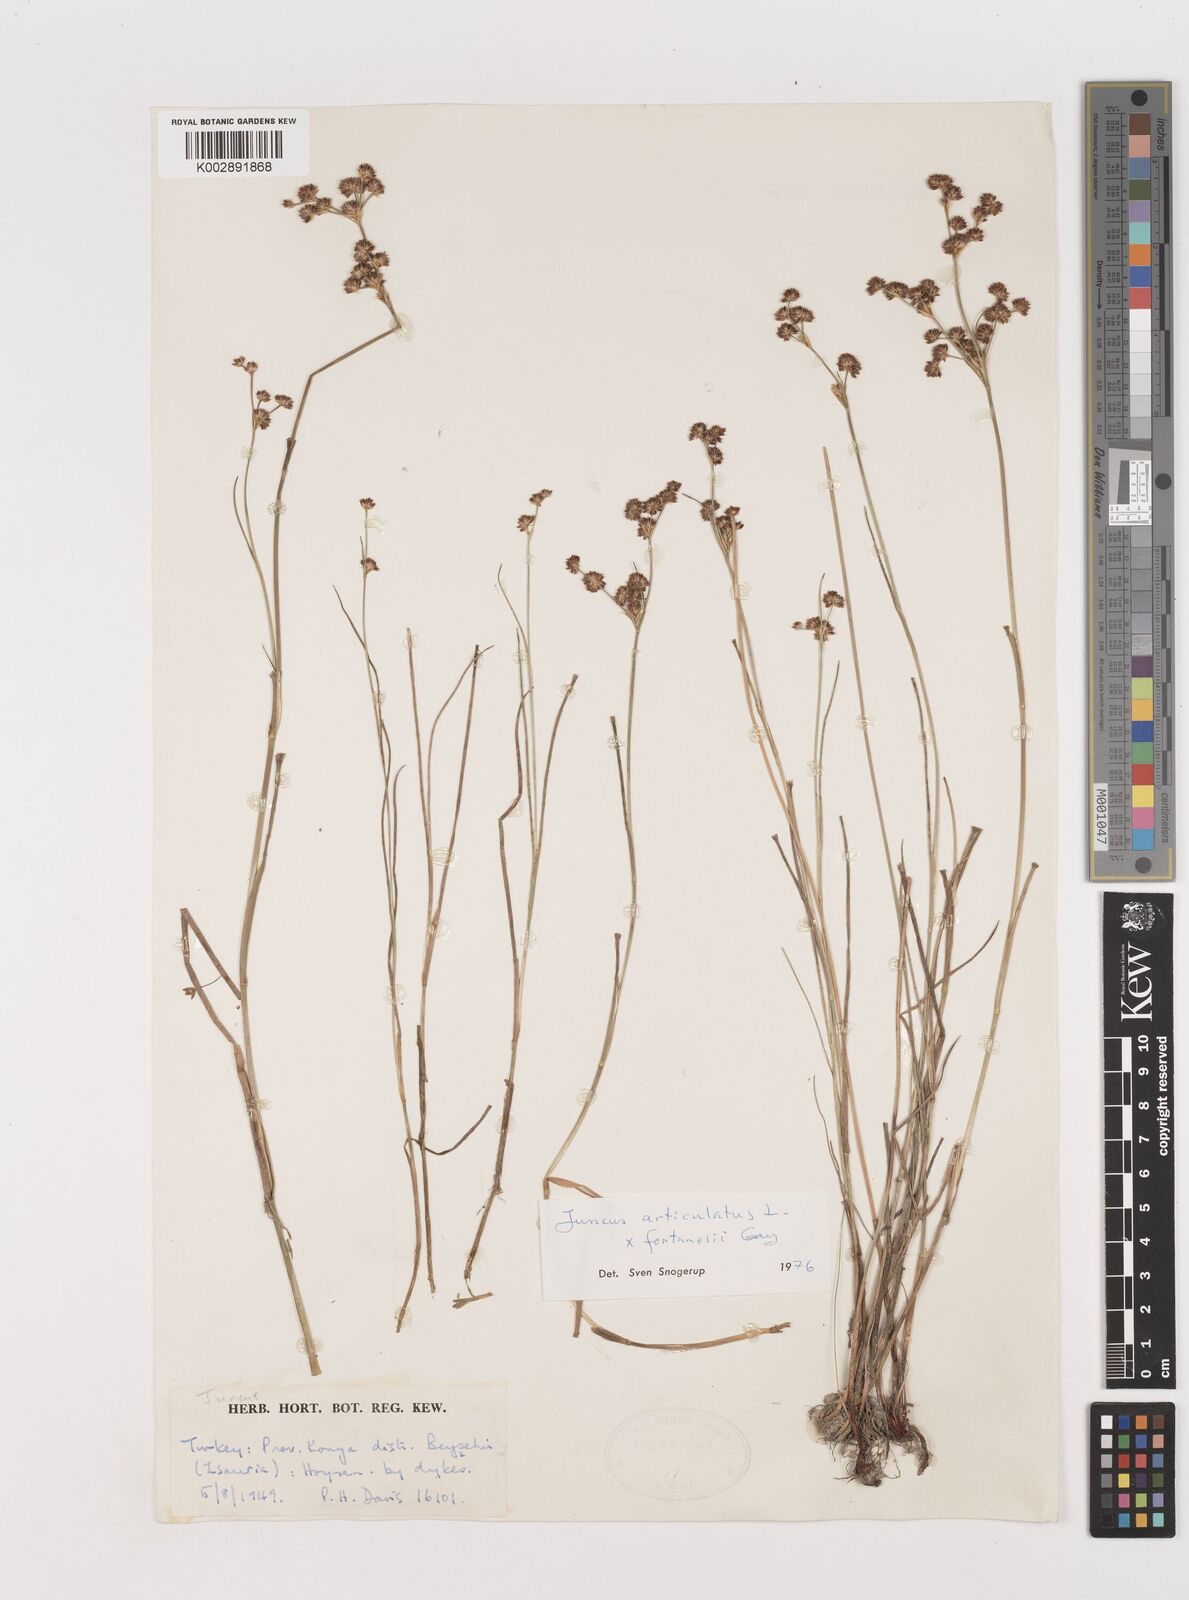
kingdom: Plantae
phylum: Tracheophyta
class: Liliopsida
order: Poales
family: Juncaceae
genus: Juncus
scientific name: Juncus articulatus
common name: Jointed rush
